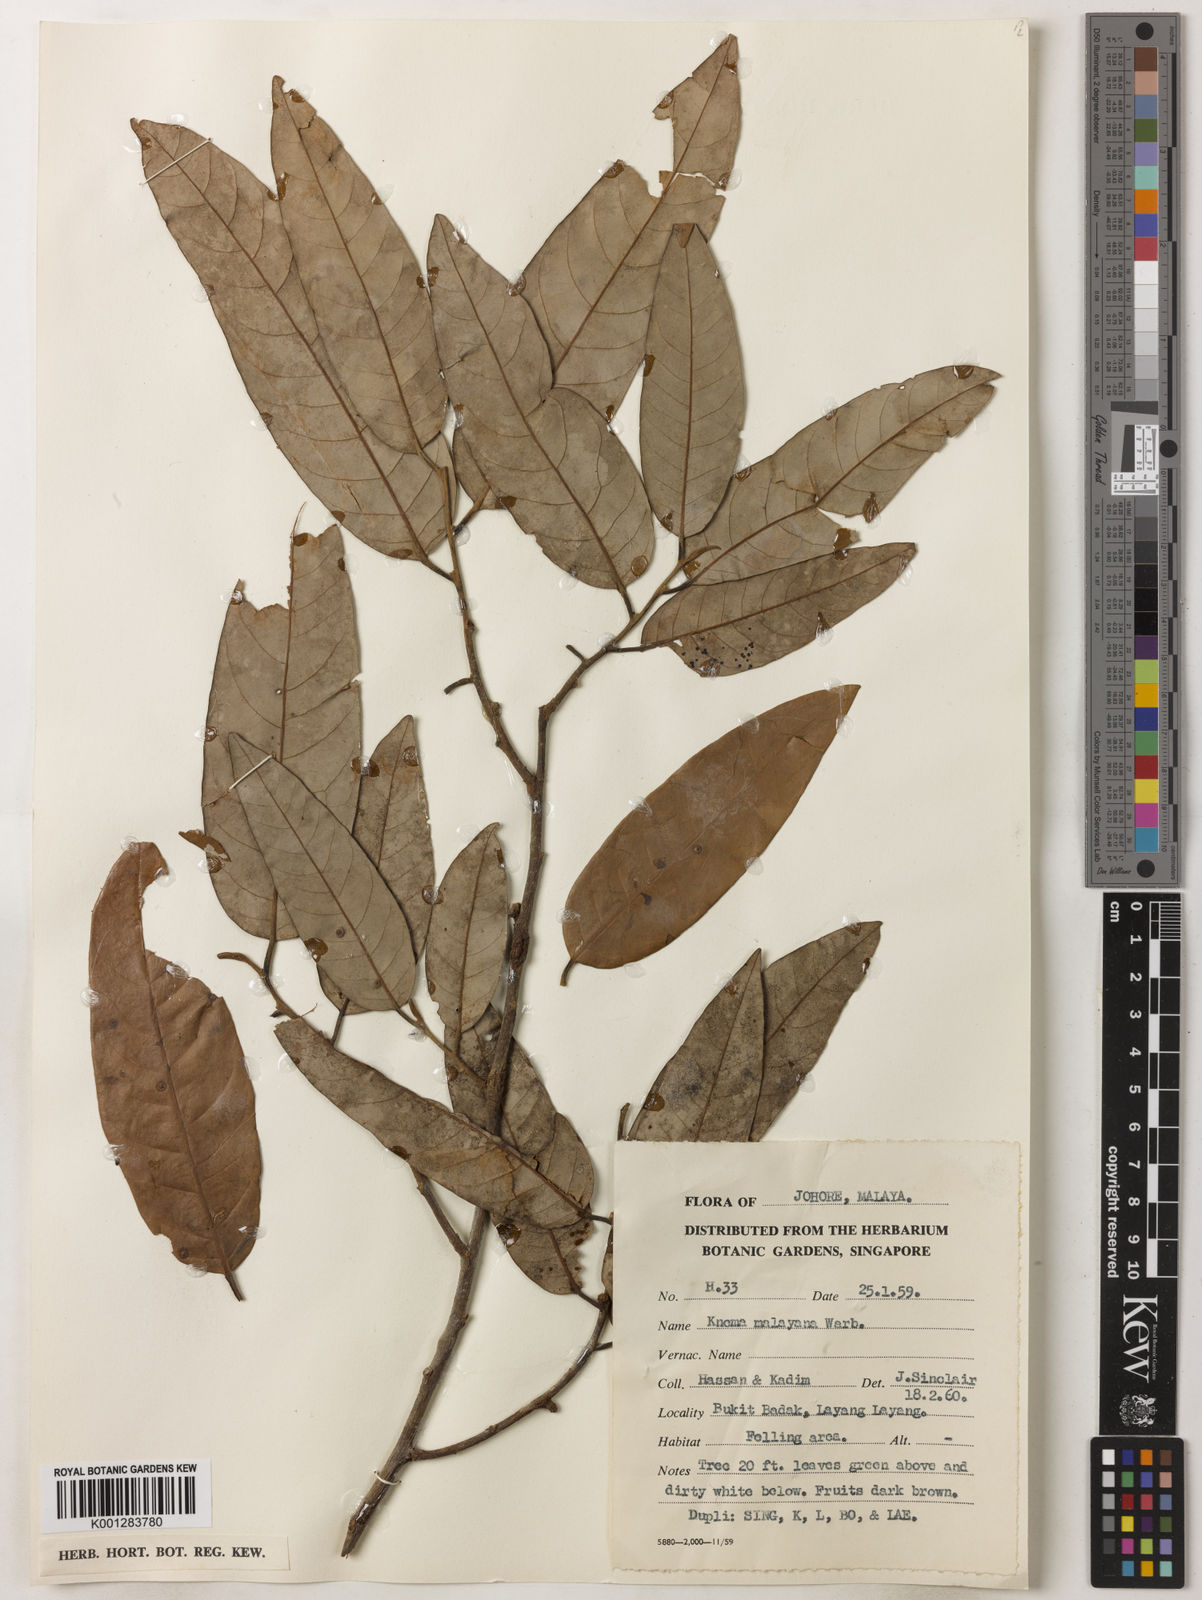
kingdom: Plantae
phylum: Tracheophyta
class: Magnoliopsida
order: Magnoliales
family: Myristicaceae
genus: Knema
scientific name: Knema malayana
